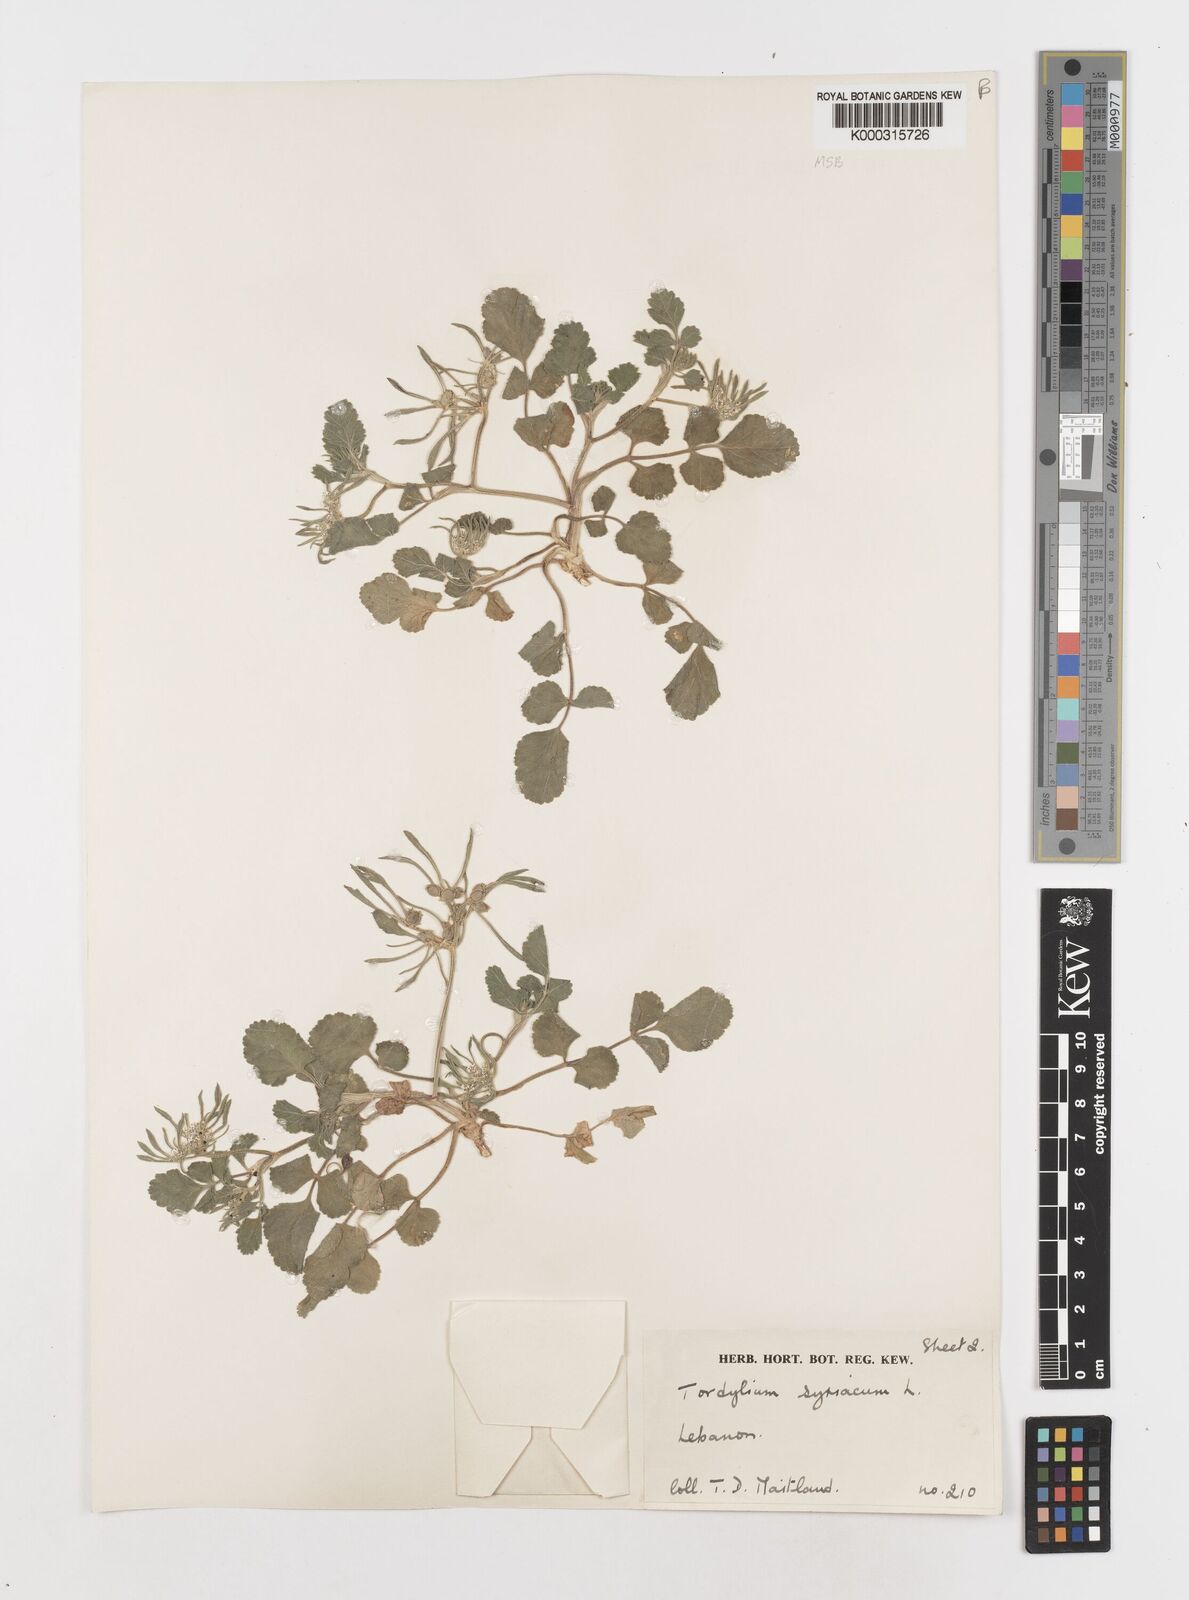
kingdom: Plantae
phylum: Tracheophyta
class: Magnoliopsida
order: Apiales
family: Apiaceae
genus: Tordylium
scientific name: Tordylium syriacum
